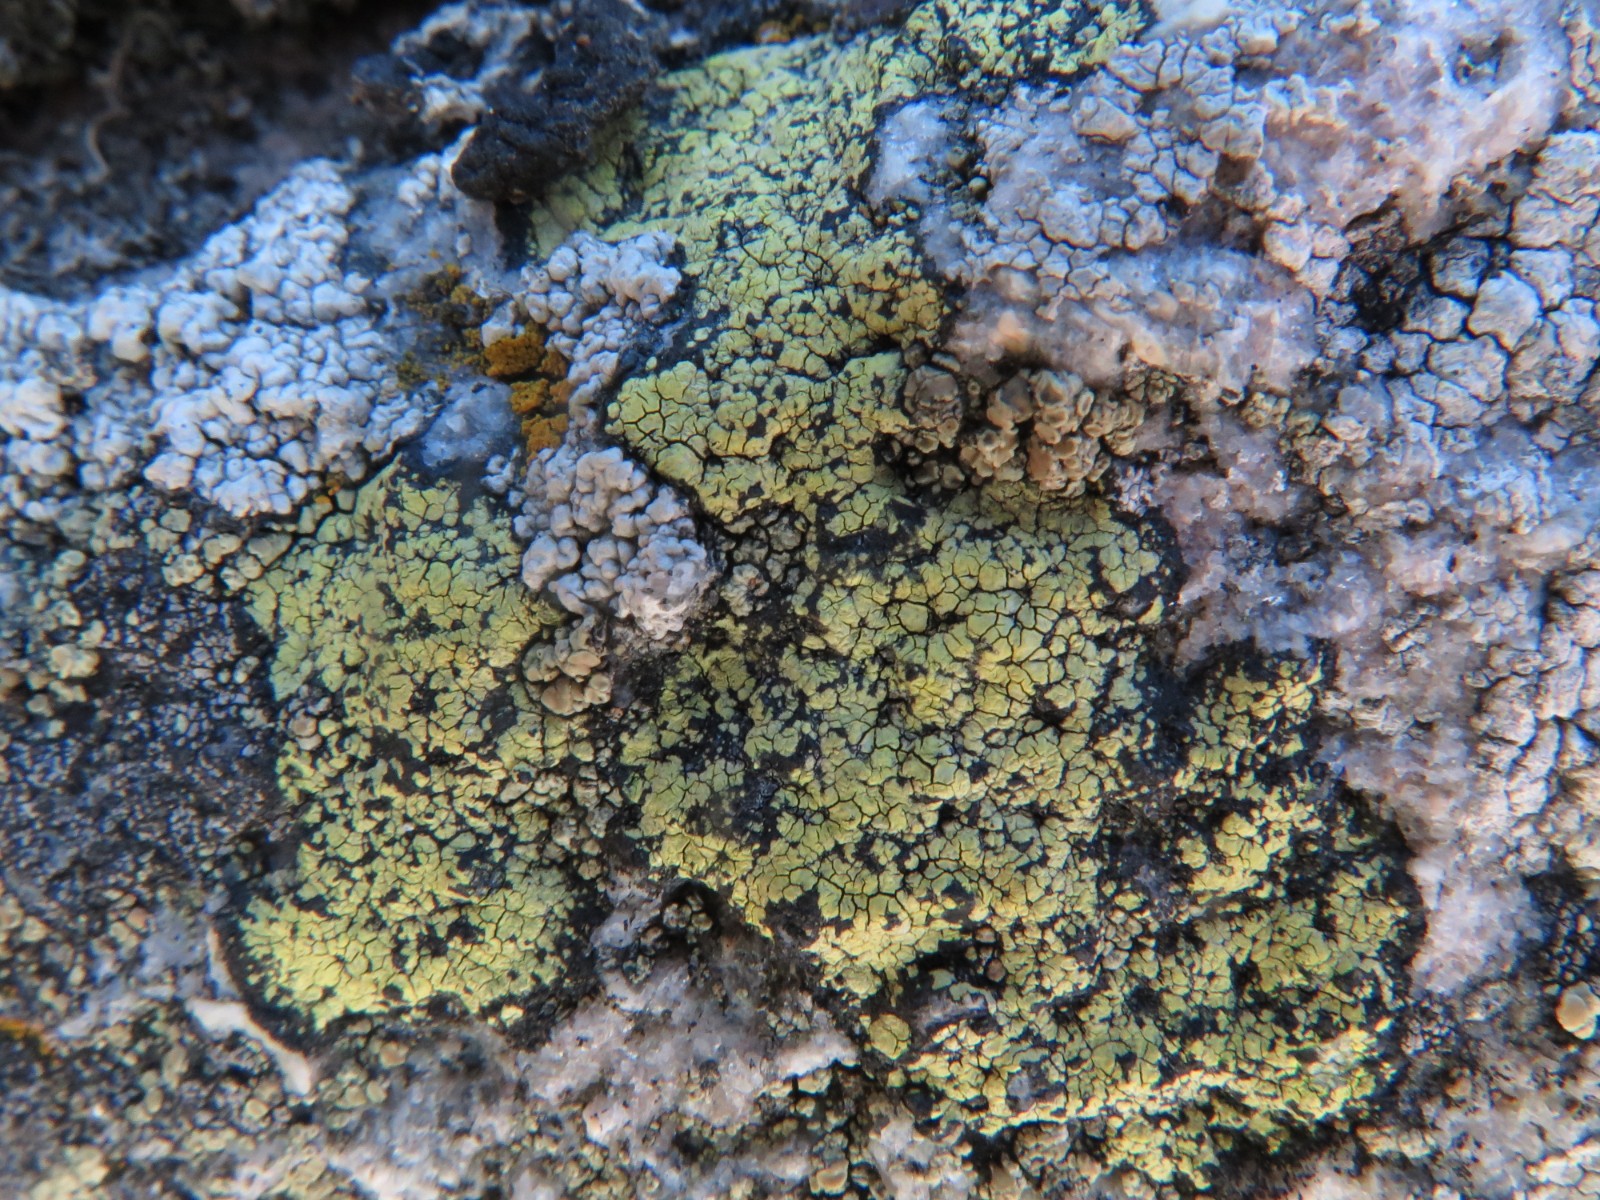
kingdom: Fungi
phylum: Ascomycota
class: Lecanoromycetes
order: Rhizocarpales
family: Rhizocarpaceae
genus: Rhizocarpon
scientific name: Rhizocarpon geographicum
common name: gulgrøn landkortlav
